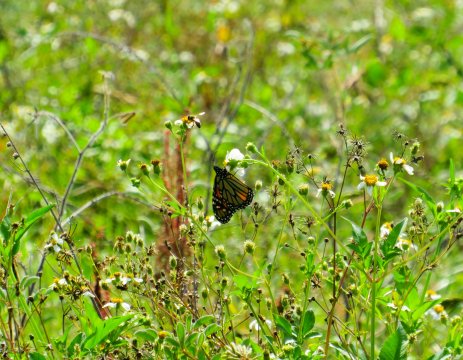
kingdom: Animalia
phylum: Arthropoda
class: Insecta
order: Lepidoptera
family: Nymphalidae
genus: Danaus
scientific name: Danaus plexippus
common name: Monarch
